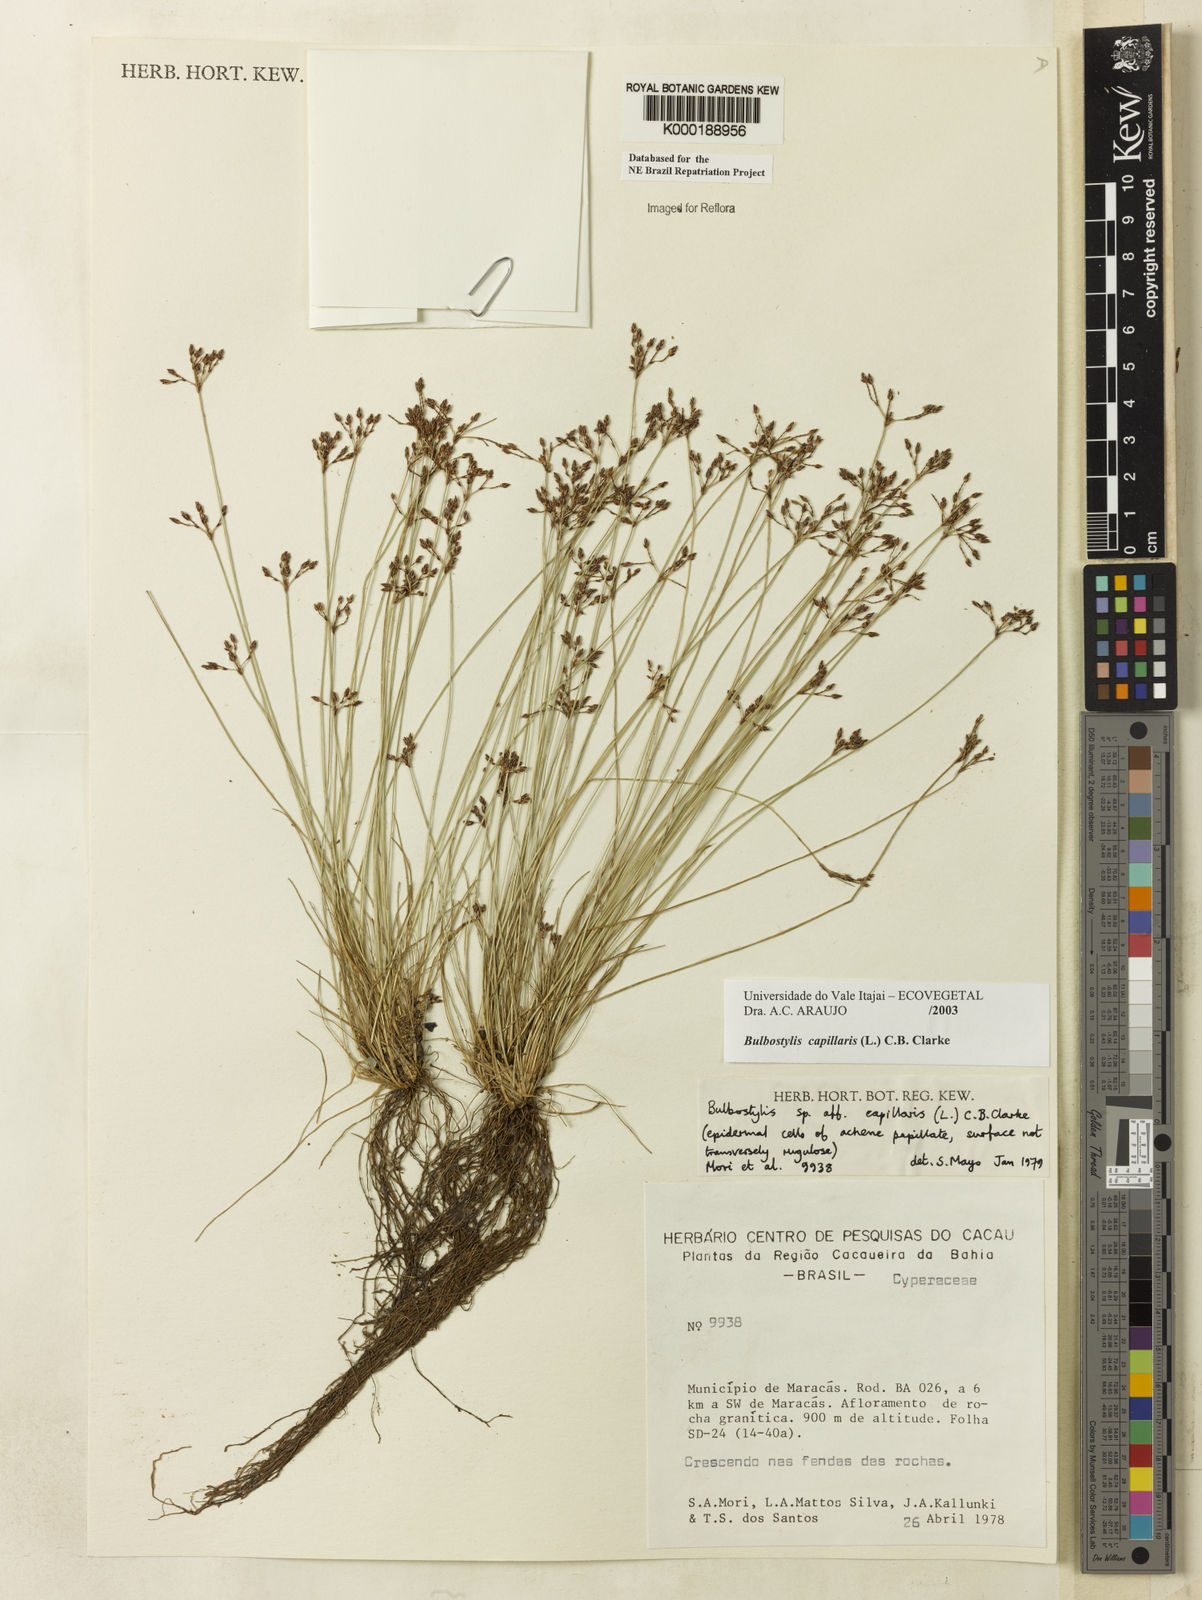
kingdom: Plantae
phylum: Tracheophyta
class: Liliopsida
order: Poales
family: Cyperaceae
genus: Bulbostylis
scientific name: Bulbostylis capillaris
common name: Densetuft hairsedge
